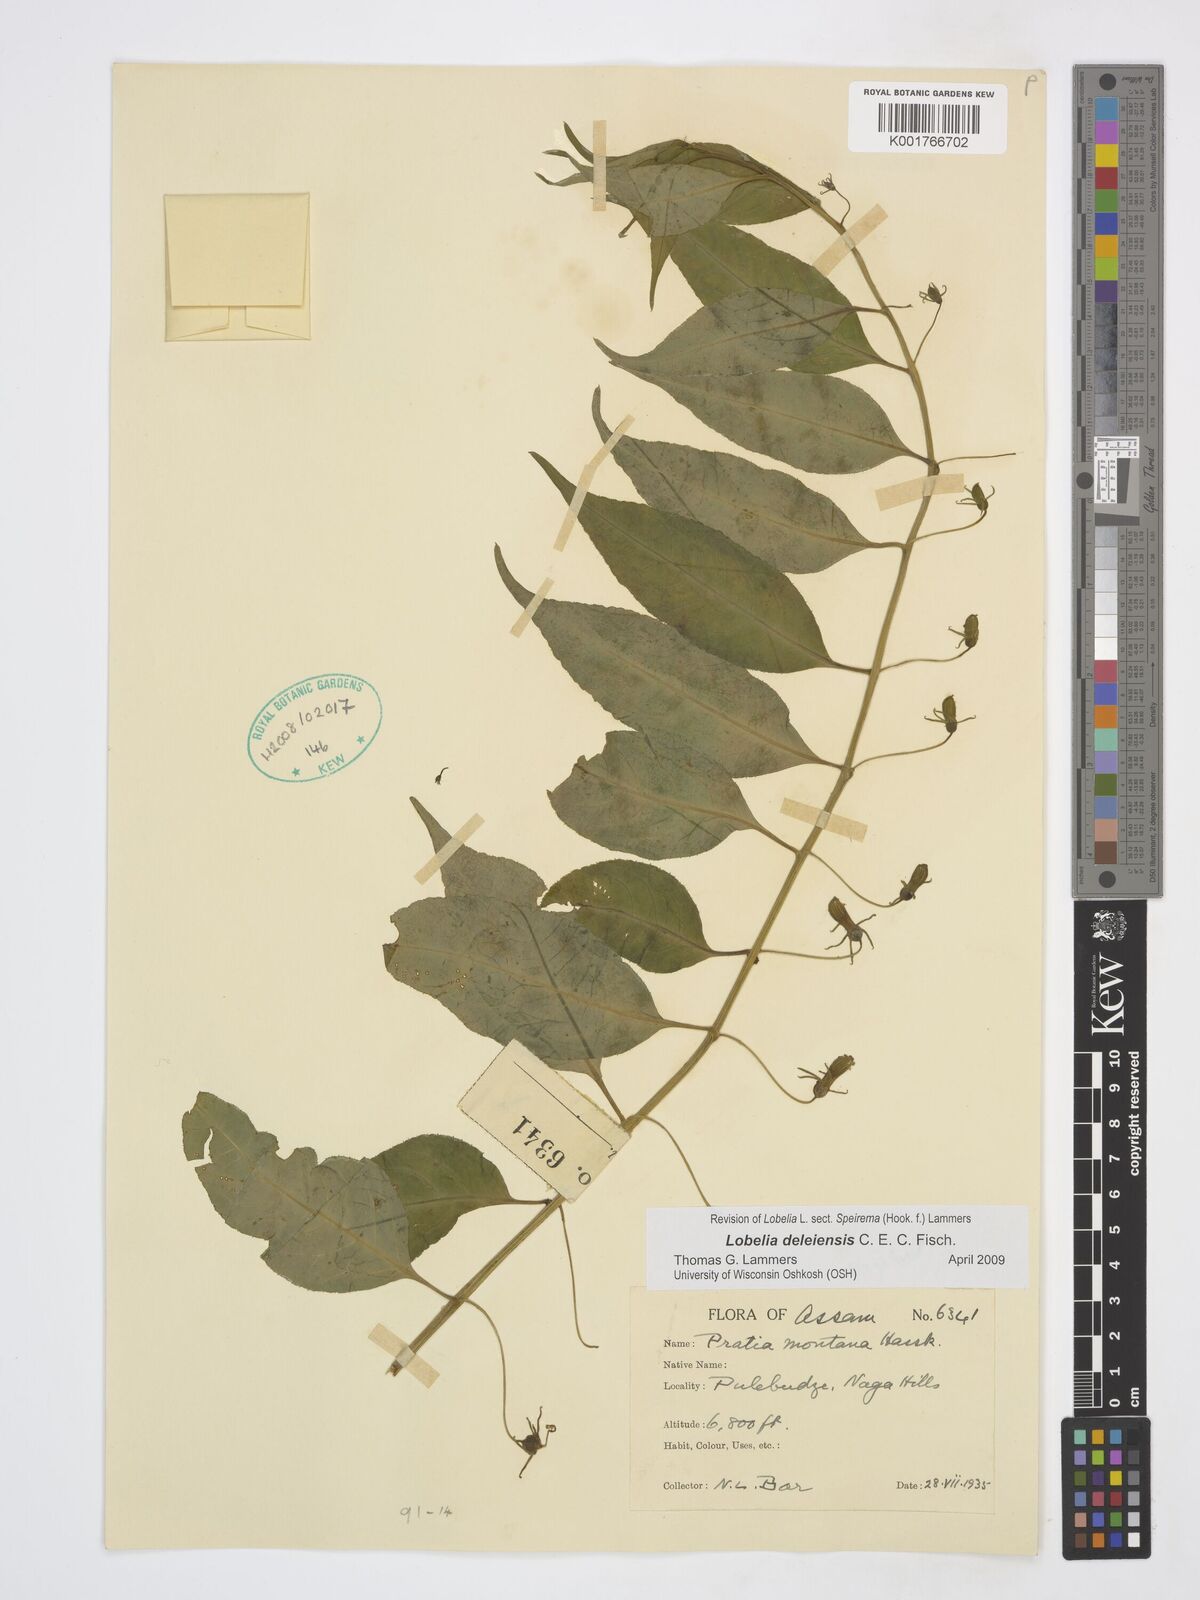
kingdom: Plantae
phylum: Tracheophyta
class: Magnoliopsida
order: Asterales
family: Campanulaceae
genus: Lobelia
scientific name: Lobelia deleiensis
